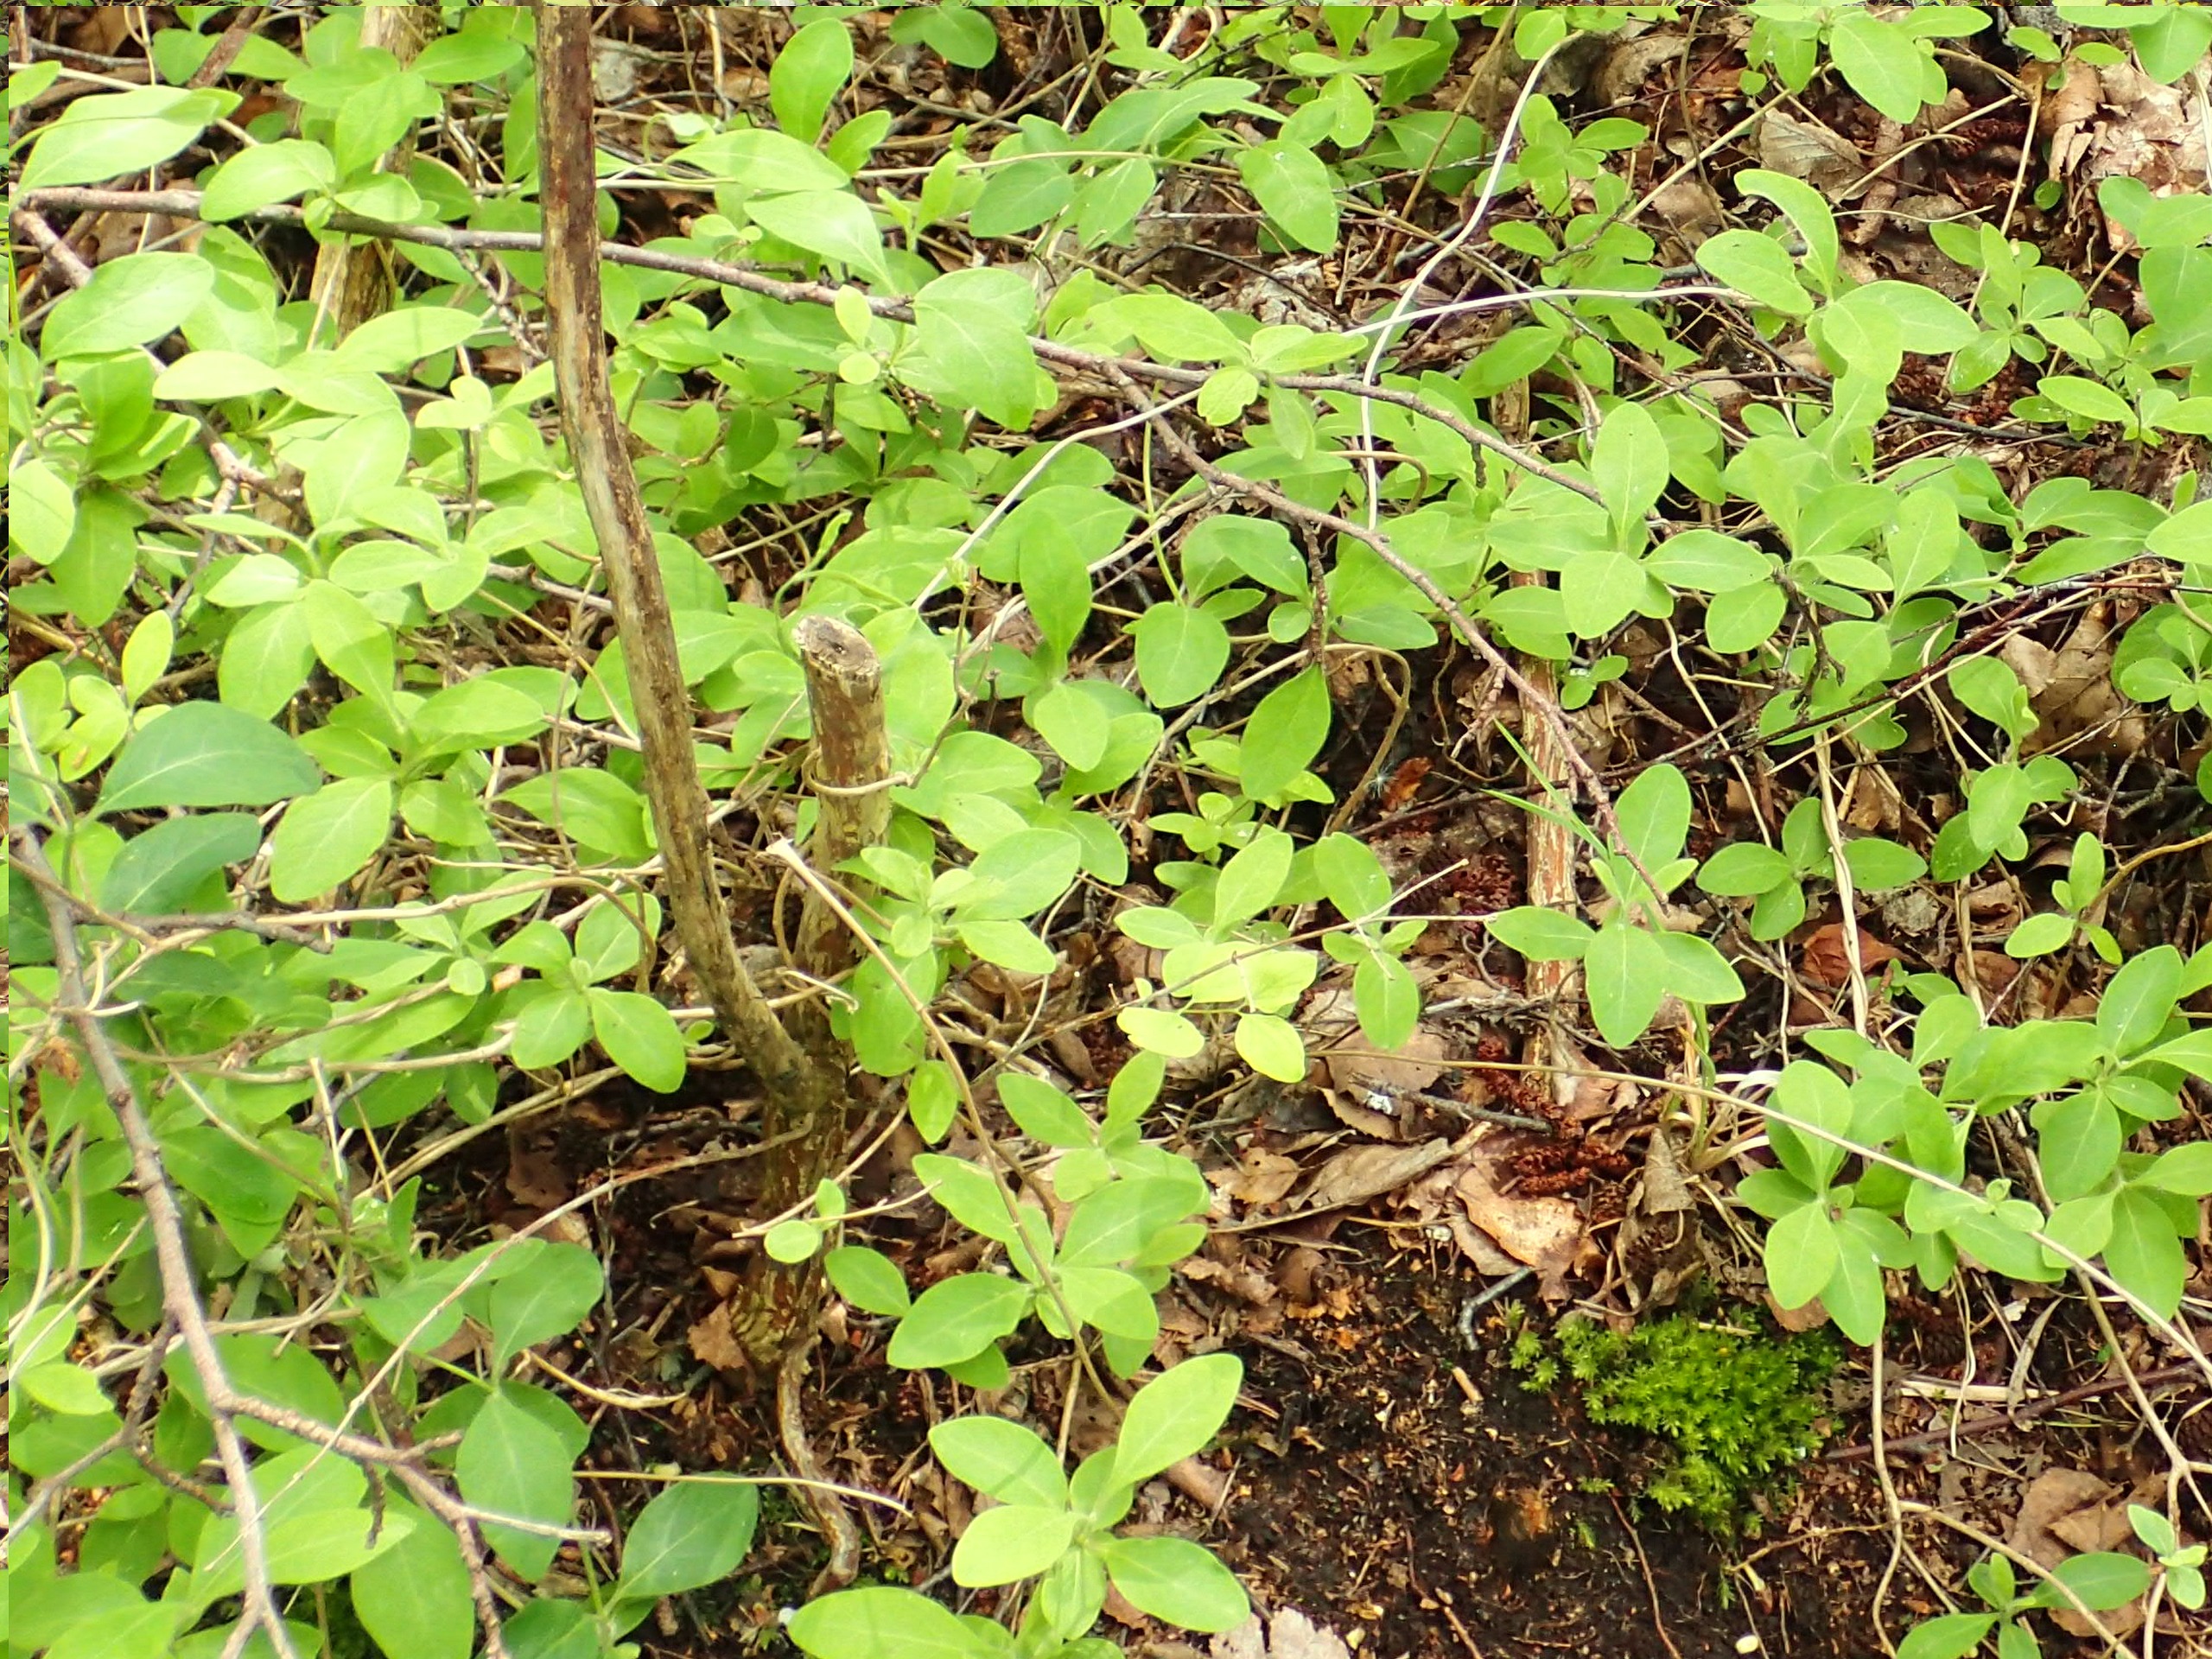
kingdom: Plantae
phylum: Tracheophyta
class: Magnoliopsida
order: Dipsacales
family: Caprifoliaceae
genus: Lonicera
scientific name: Lonicera periclymenum
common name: Almindelig gedeblad
